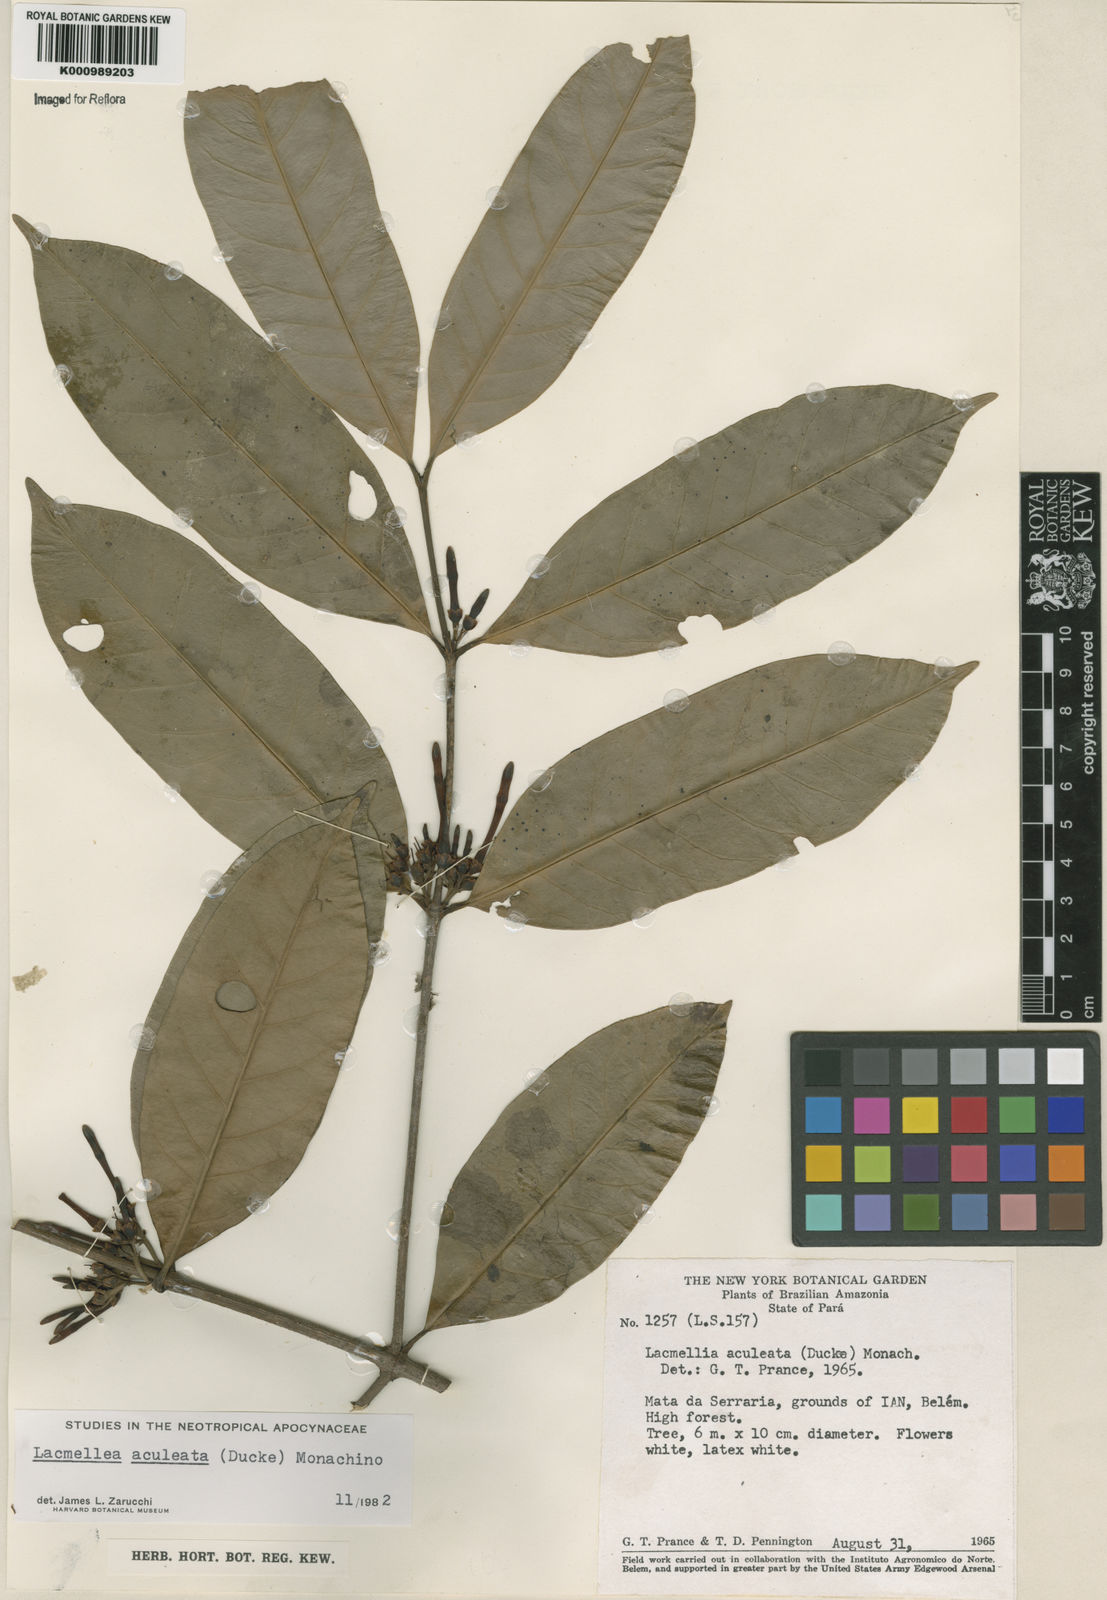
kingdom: Plantae
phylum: Tracheophyta
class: Magnoliopsida
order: Gentianales
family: Apocynaceae
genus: Lacmellea
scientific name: Lacmellea aculeata
